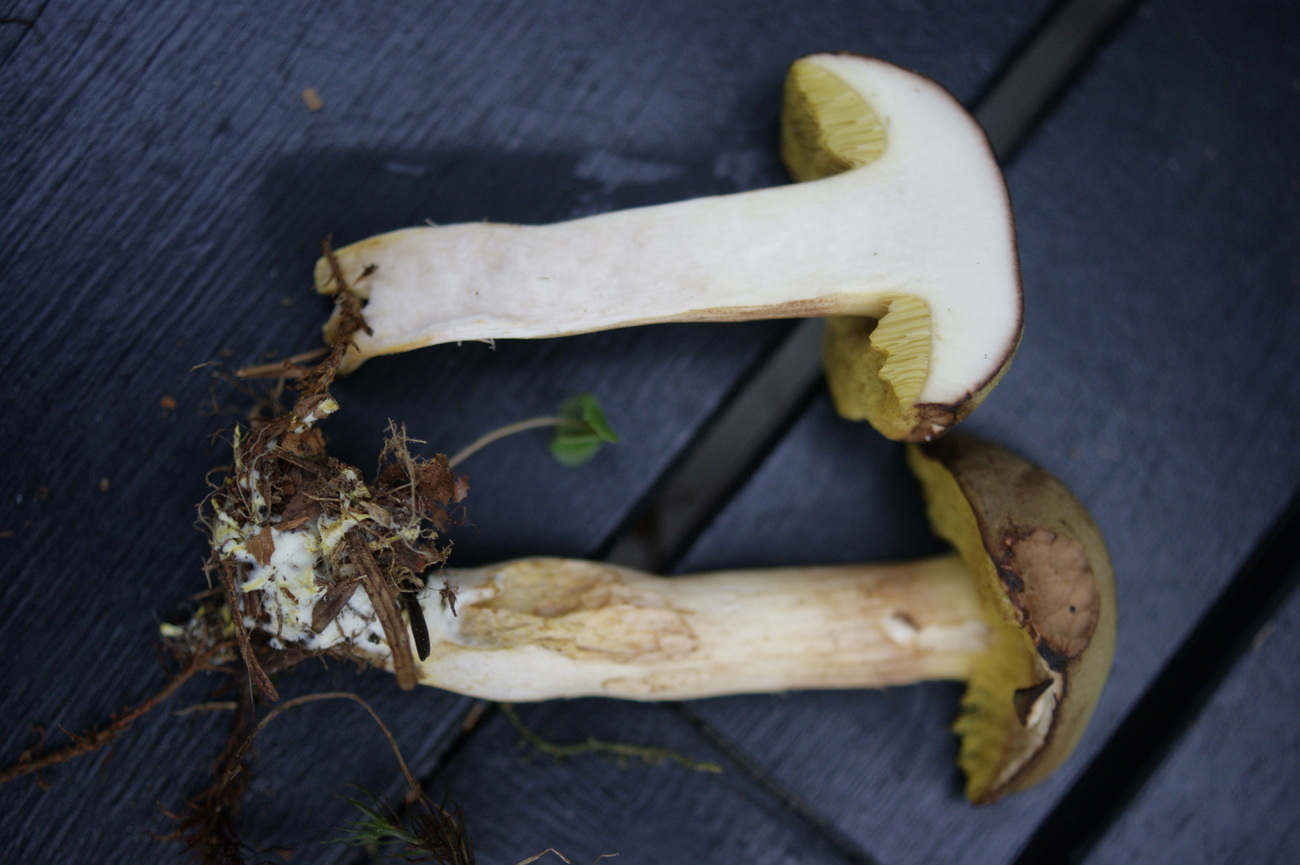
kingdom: Fungi
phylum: Basidiomycota
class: Agaricomycetes
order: Boletales
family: Boletaceae
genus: Xerocomus
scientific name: Xerocomus ferrugineus
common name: vaskeskinds-rørhat
